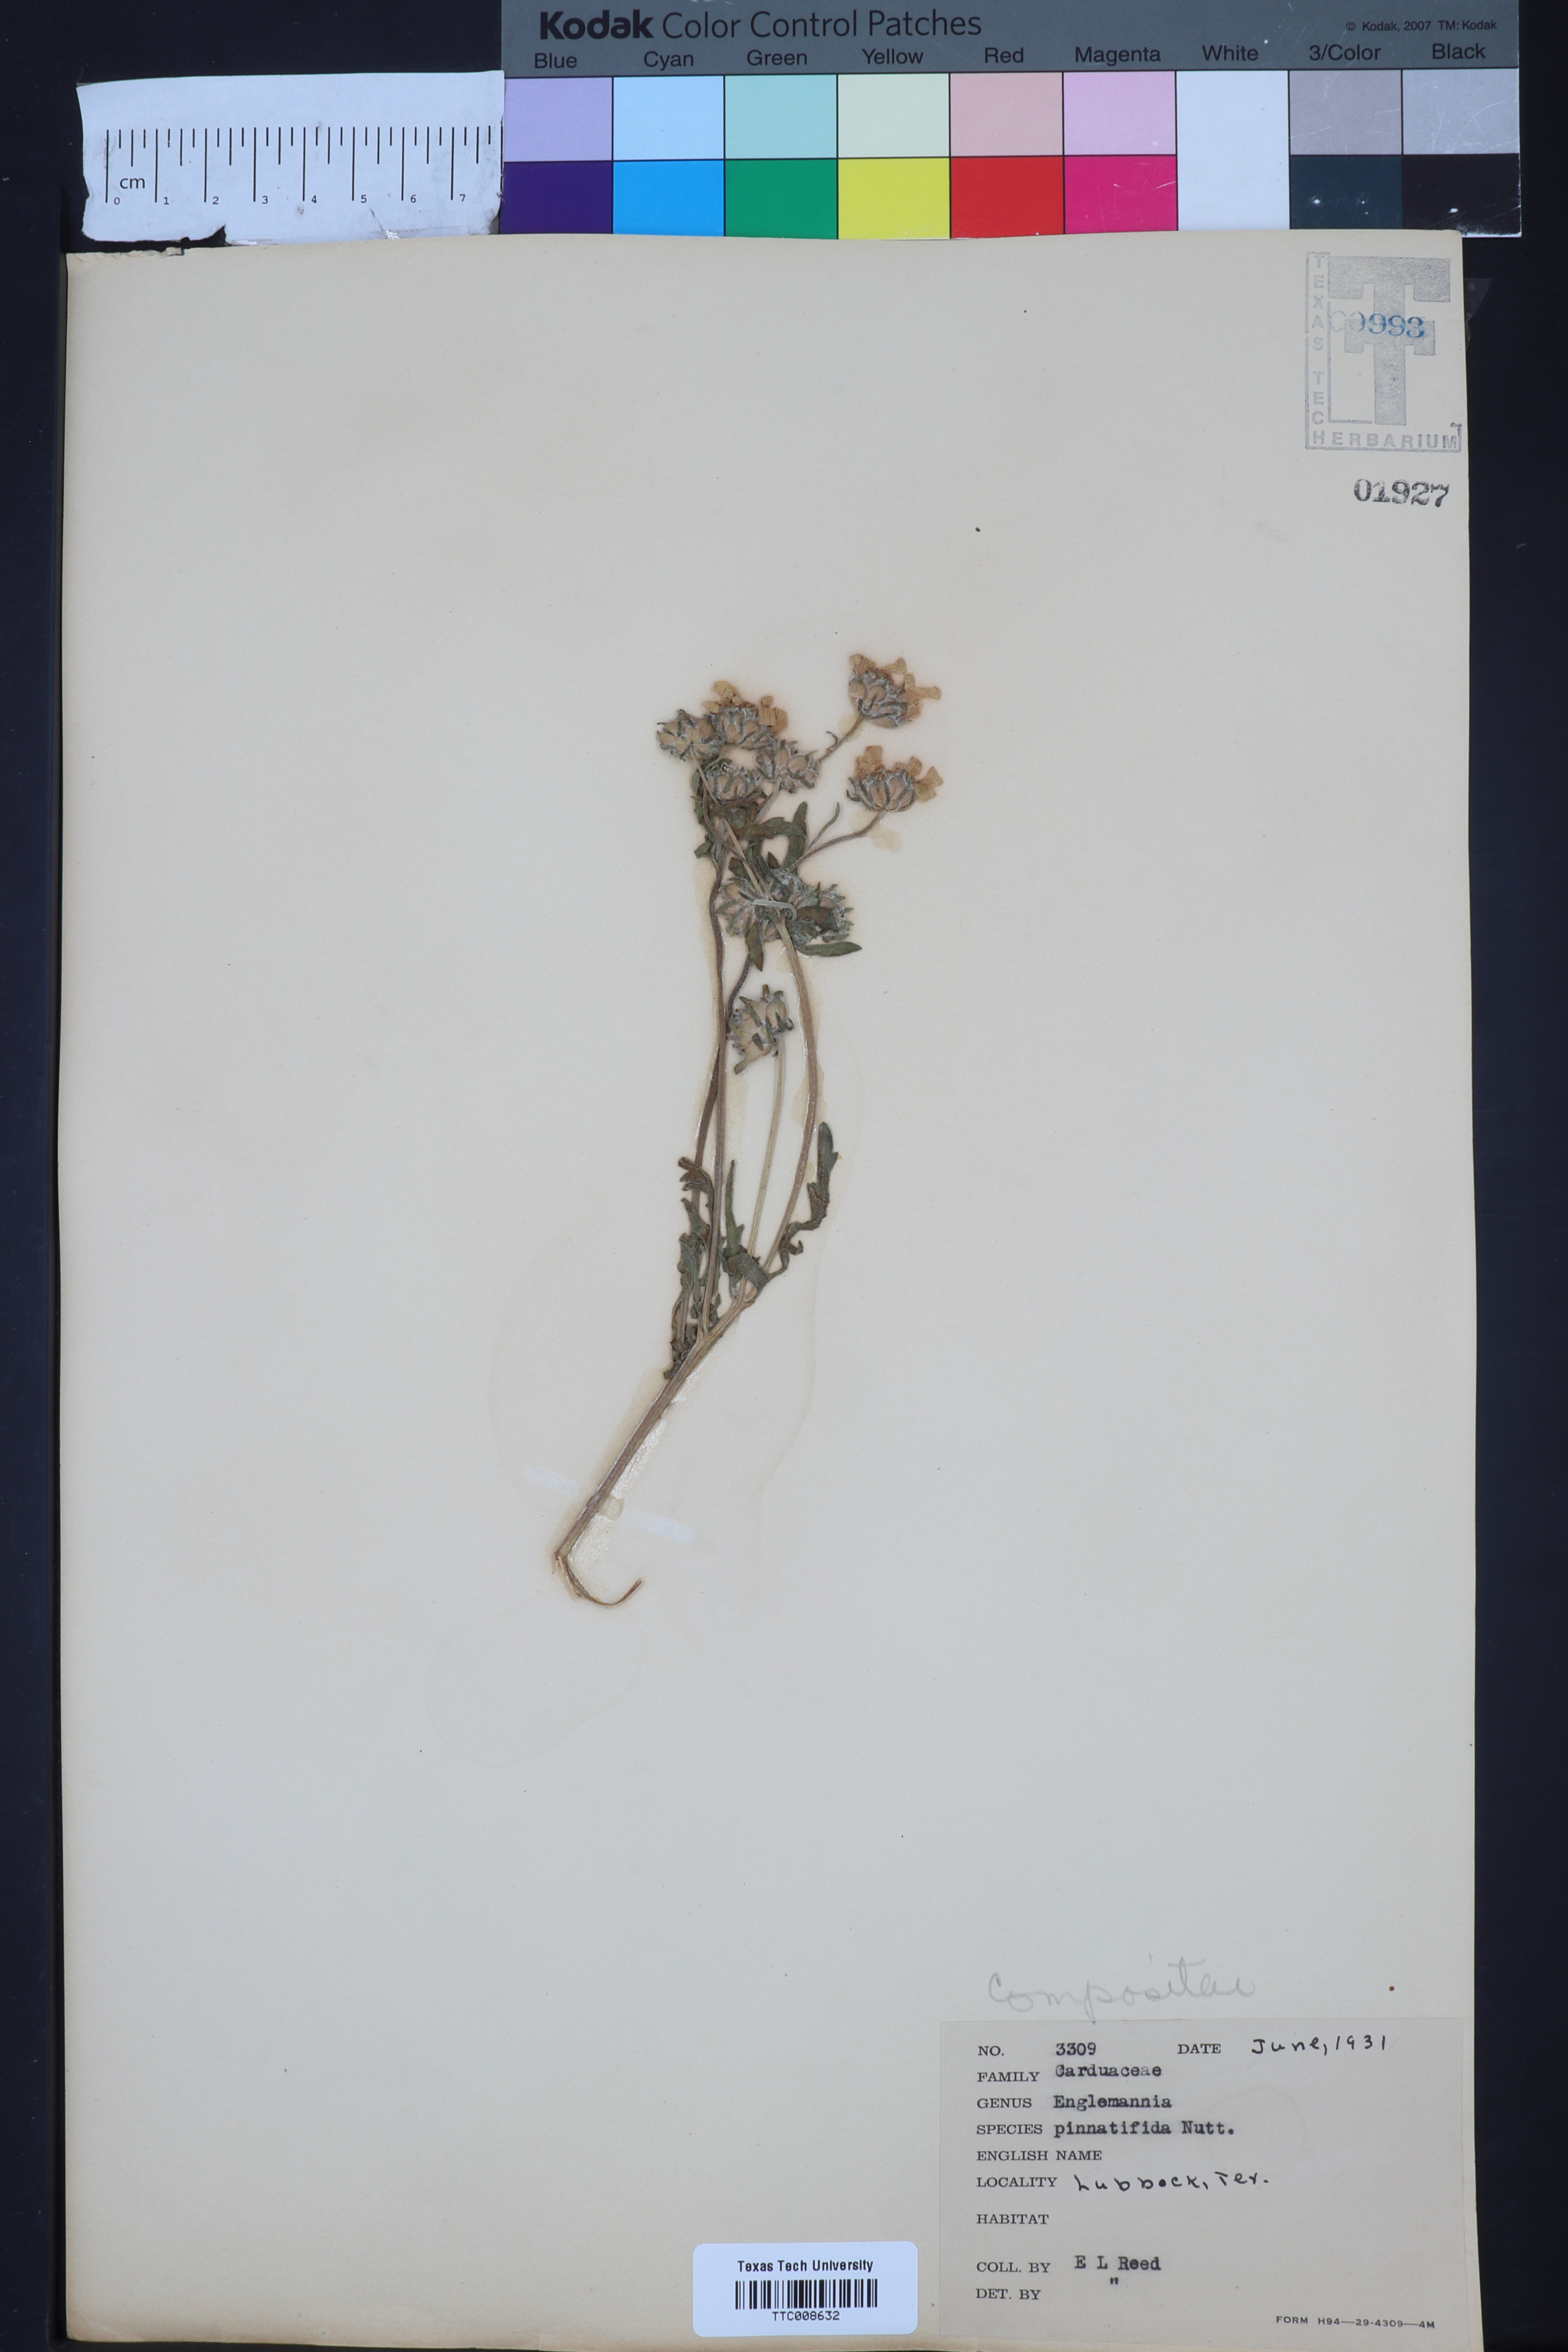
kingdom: Plantae
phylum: Tracheophyta
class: Magnoliopsida
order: Asterales
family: Asteraceae
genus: Engelmannia
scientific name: Engelmannia peristenia
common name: Engelmann's daisy
